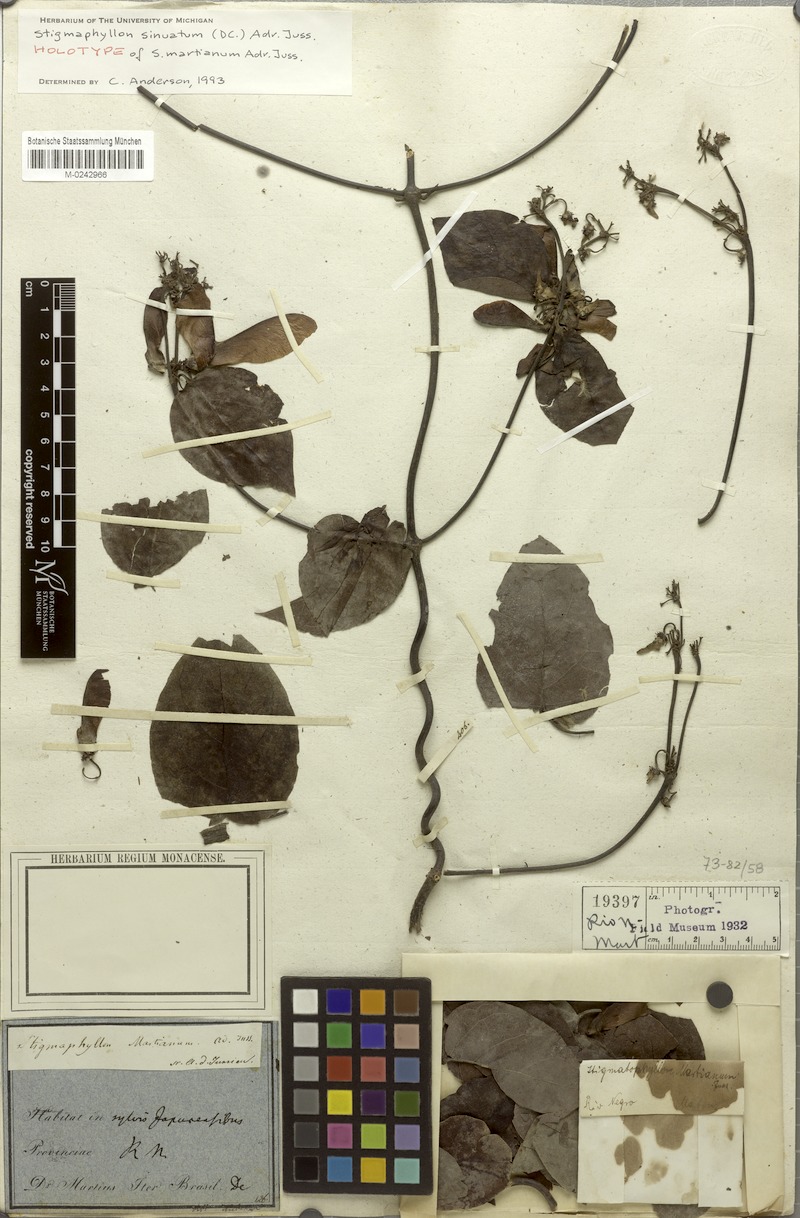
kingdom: Plantae
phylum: Tracheophyta
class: Magnoliopsida
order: Malpighiales
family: Malpighiaceae
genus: Stigmaphyllon
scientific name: Stigmaphyllon sinuatum
